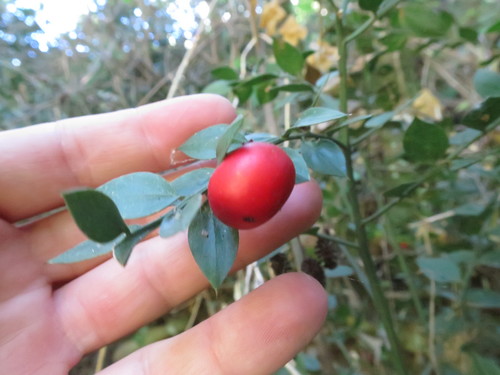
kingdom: Plantae
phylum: Tracheophyta
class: Liliopsida
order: Asparagales
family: Asparagaceae
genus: Ruscus
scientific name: Ruscus aculeatus
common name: Butcher's-broom
